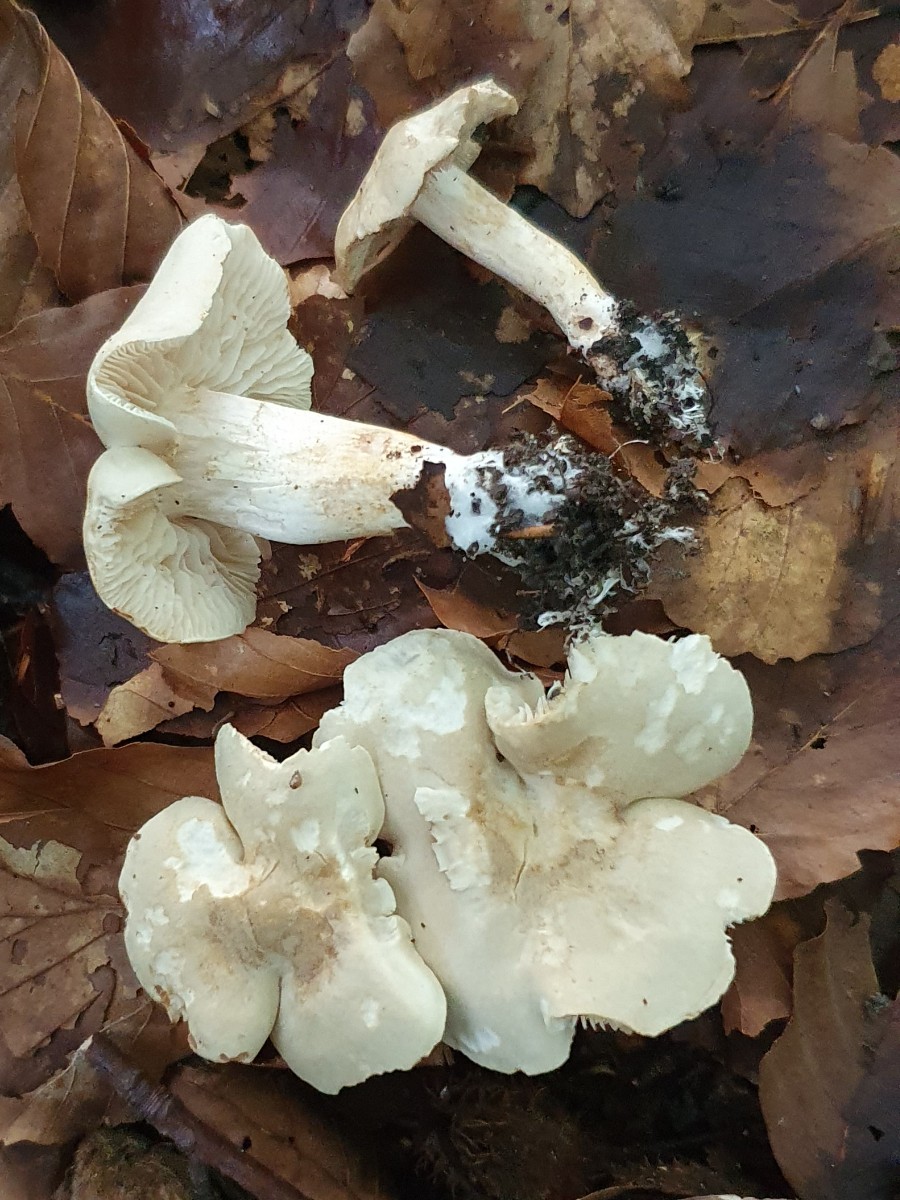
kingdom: Fungi
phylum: Basidiomycota
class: Agaricomycetes
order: Agaricales
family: Tricholomataceae
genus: Tricholoma
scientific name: Tricholoma lascivum
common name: stinkende ridderhat
